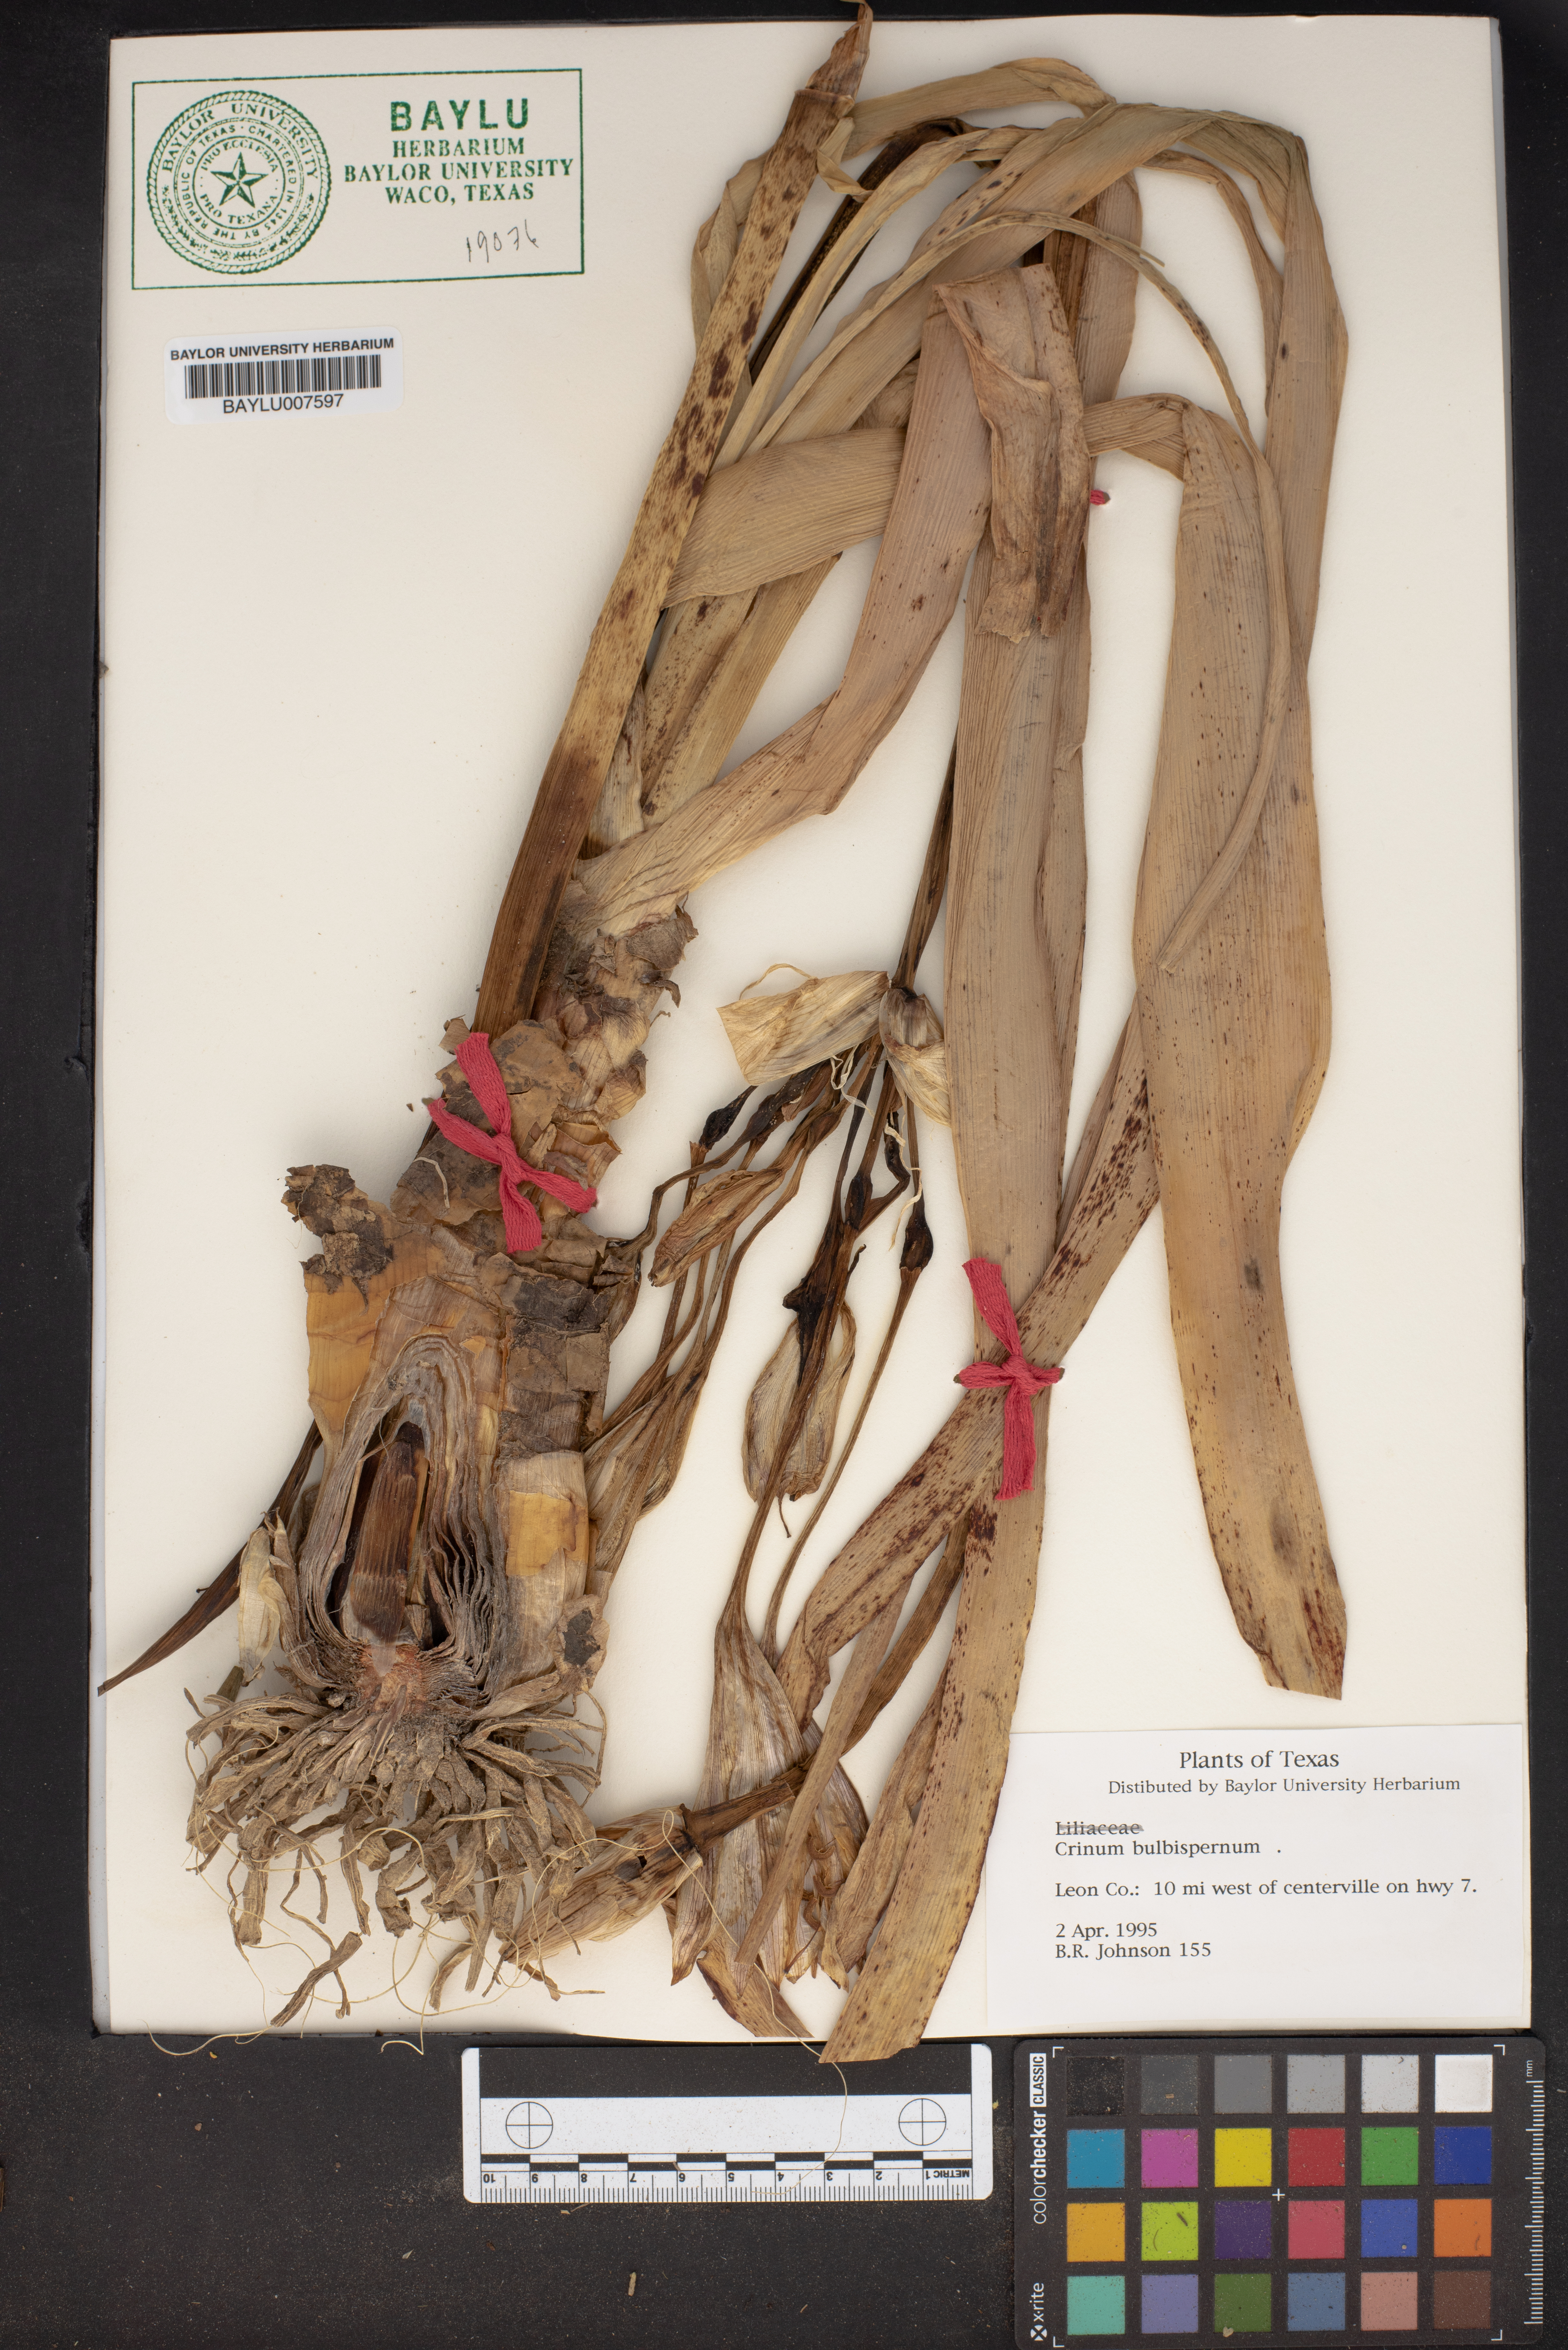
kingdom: Plantae
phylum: Tracheophyta
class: Liliopsida
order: Asparagales
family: Amaryllidaceae
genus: Crinum
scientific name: Crinum bulbispermum
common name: Hardy swamplily
